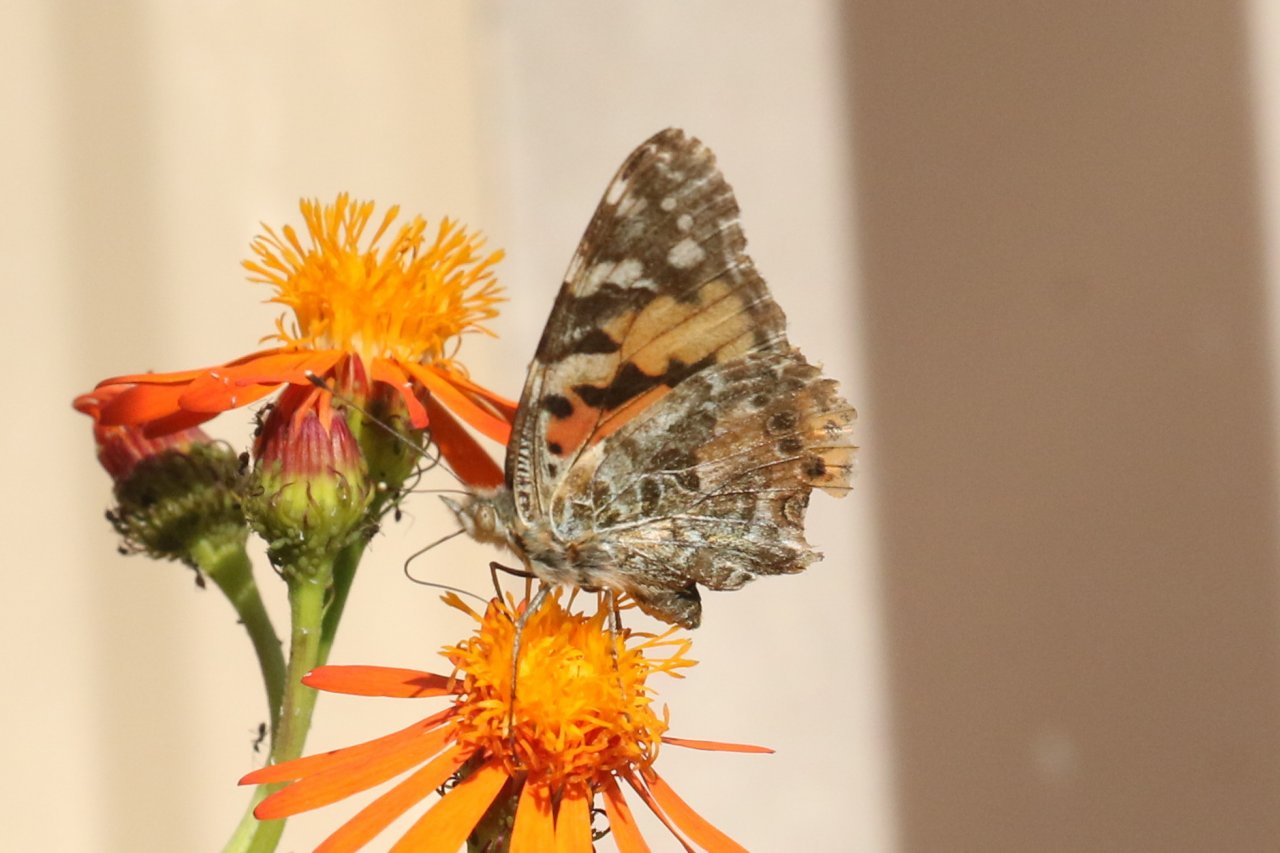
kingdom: Animalia
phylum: Arthropoda
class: Insecta
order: Lepidoptera
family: Nymphalidae
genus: Vanessa
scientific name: Vanessa cardui
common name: Painted Lady
